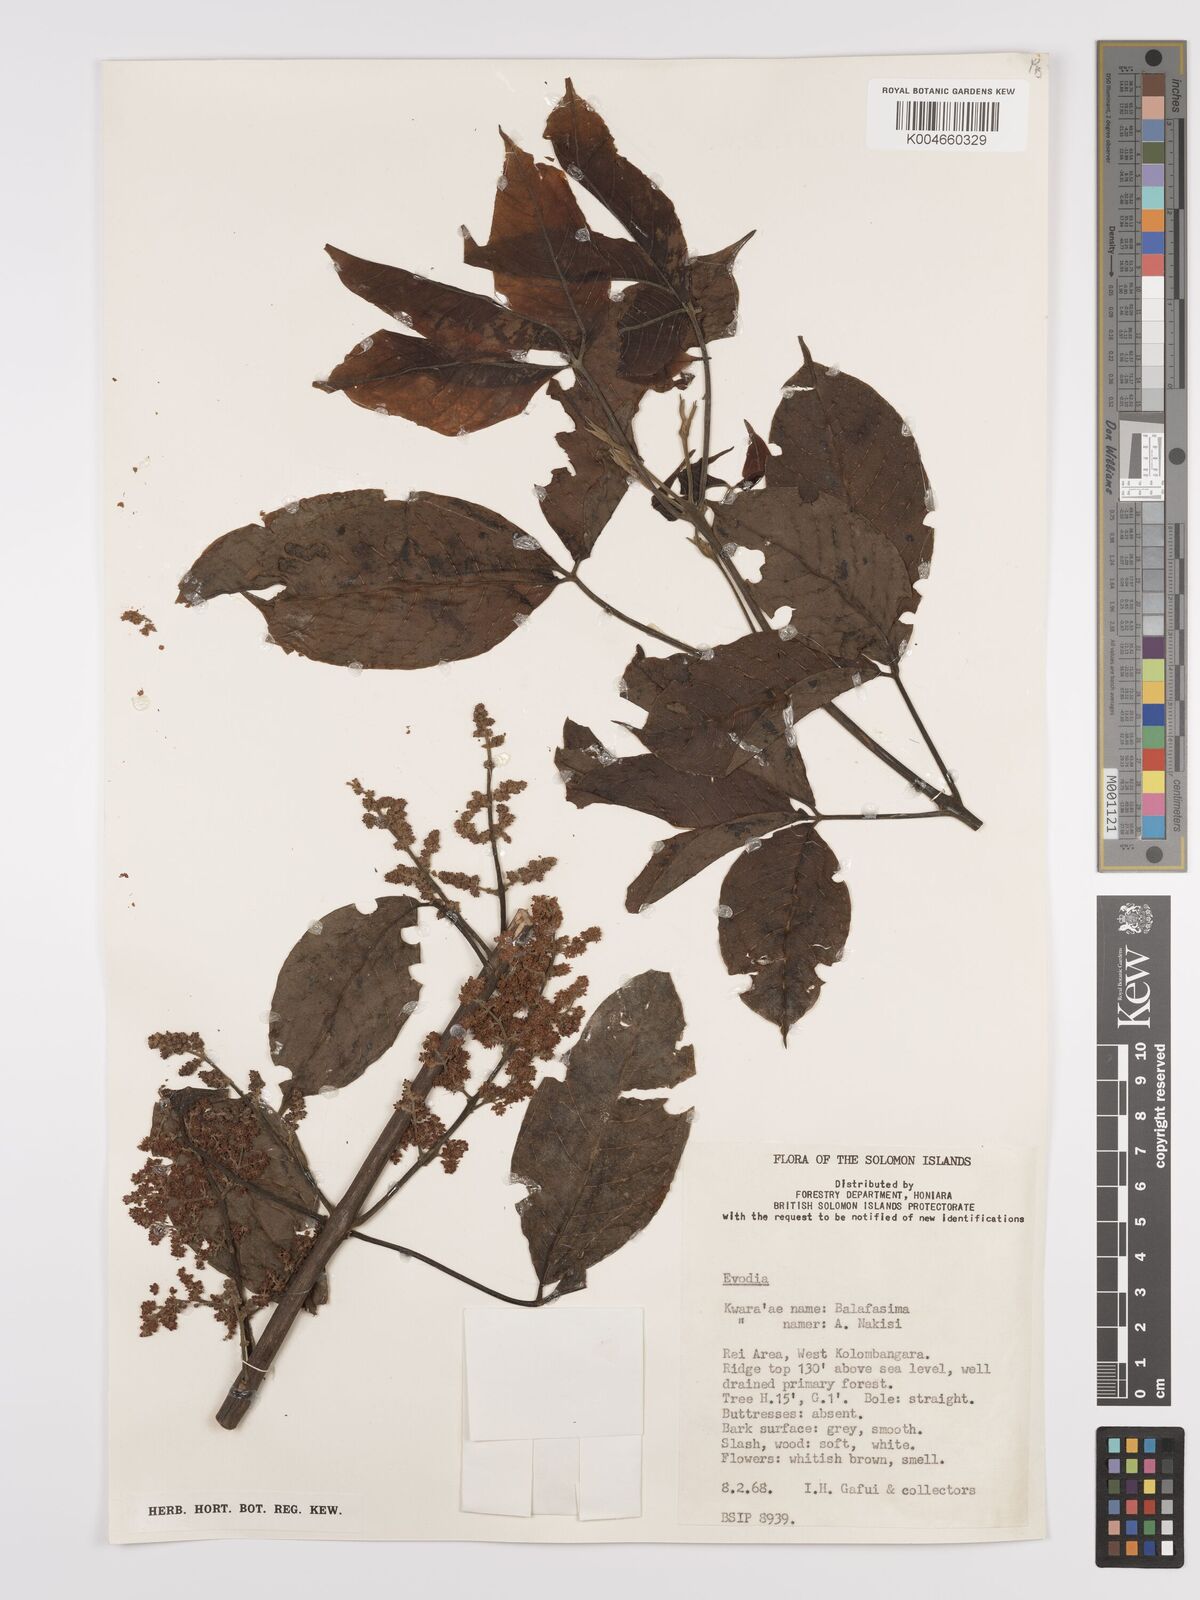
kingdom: Plantae
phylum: Tracheophyta
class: Magnoliopsida
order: Sapindales
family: Rutaceae
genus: Euodia
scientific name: Euodia
